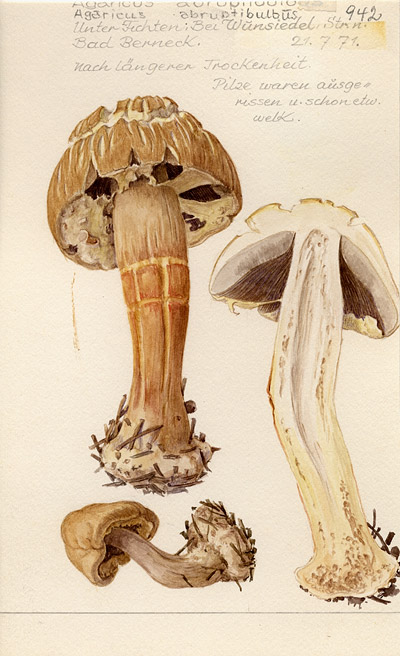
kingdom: Fungi
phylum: Basidiomycota
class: Agaricomycetes
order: Agaricales
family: Agaricaceae
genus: Agaricus
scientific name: Agaricus abruptibulbus
